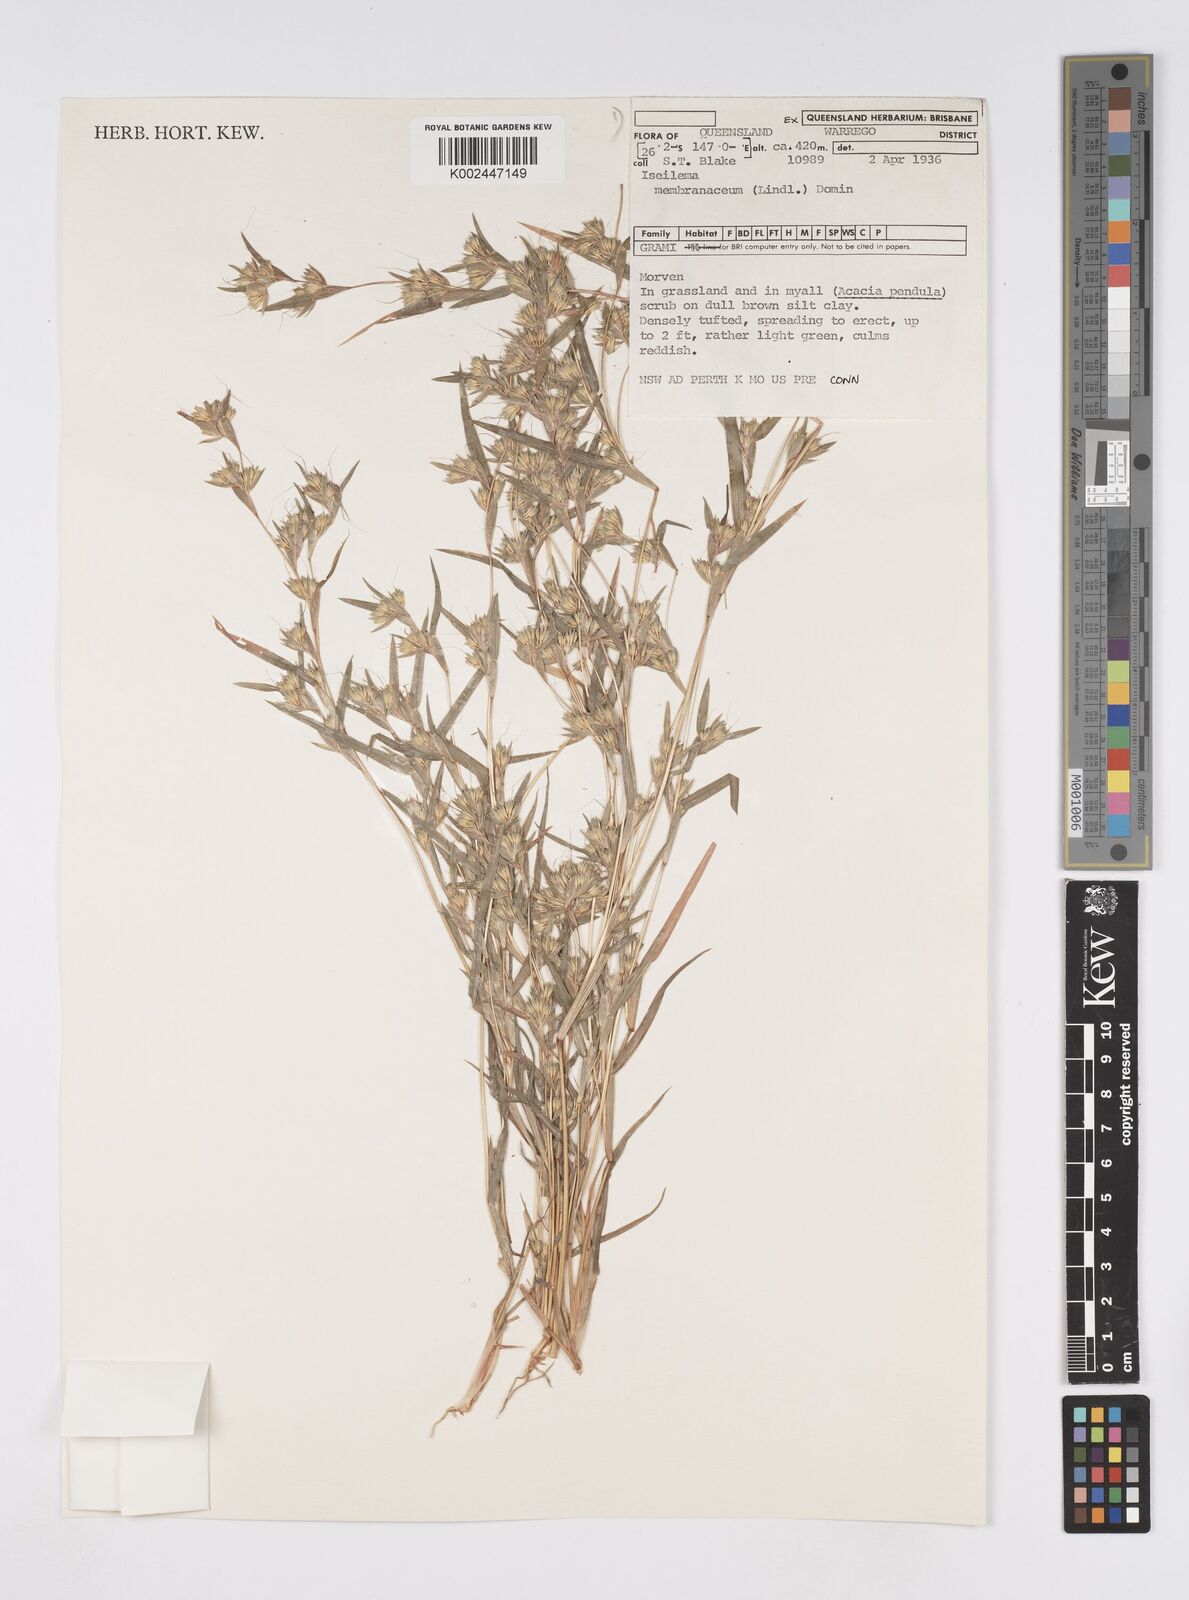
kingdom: Plantae
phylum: Tracheophyta
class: Liliopsida
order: Poales
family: Poaceae
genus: Iseilema
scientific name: Iseilema membranaceum
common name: Small flinders grass
